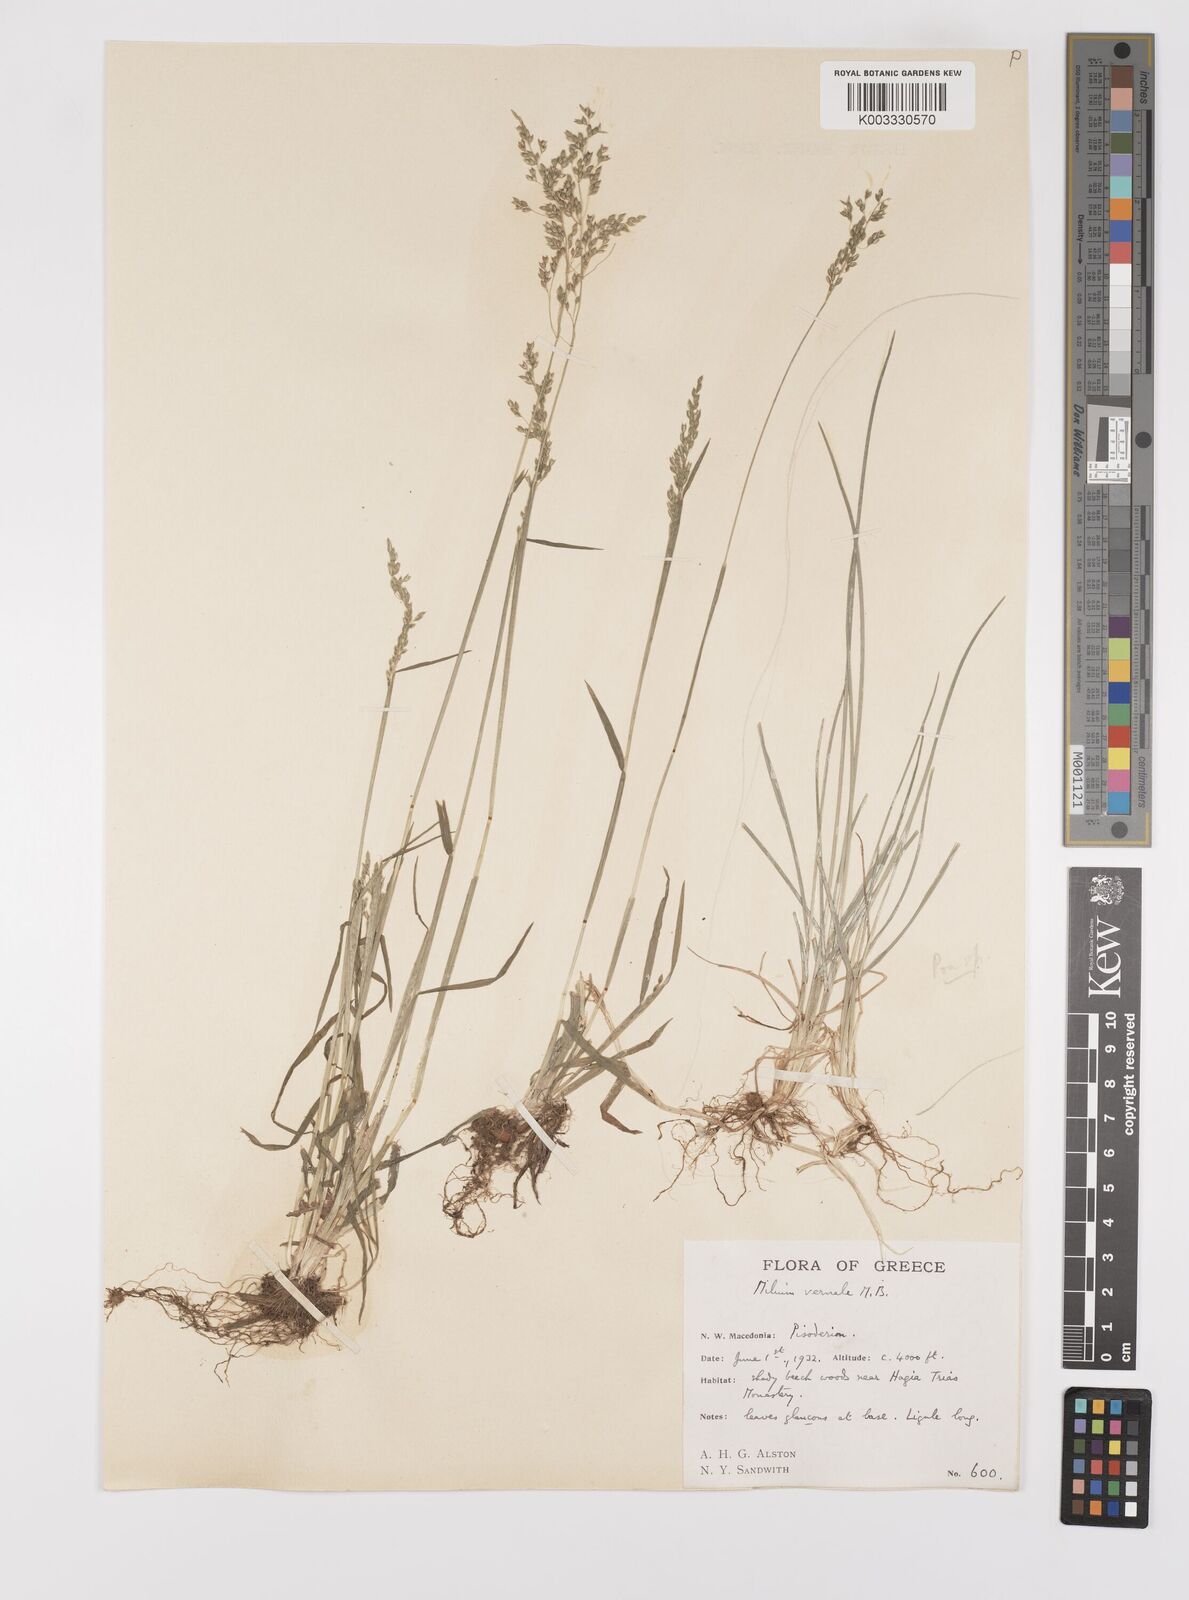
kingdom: Plantae
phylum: Tracheophyta
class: Liliopsida
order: Poales
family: Poaceae
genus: Milium
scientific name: Milium vernale
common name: Early millet
